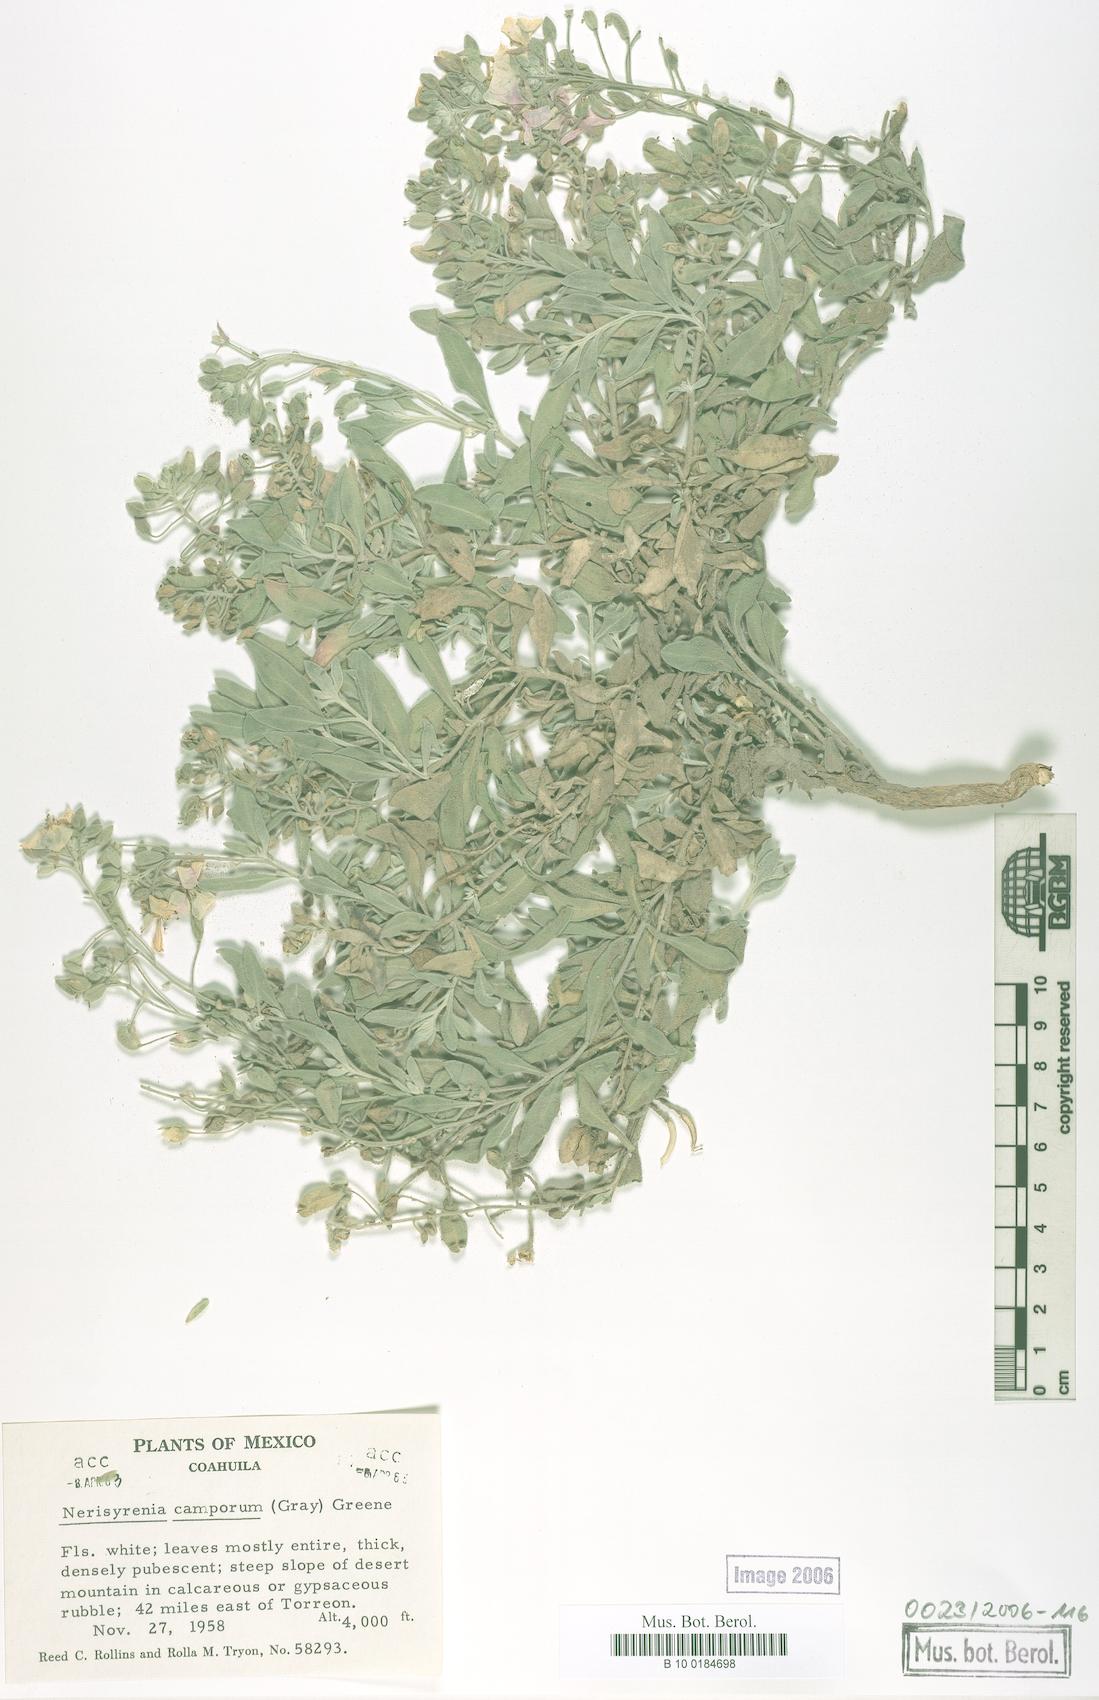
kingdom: Plantae
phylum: Tracheophyta
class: Magnoliopsida
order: Brassicales
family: Brassicaceae
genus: Nerisyrenia
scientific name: Nerisyrenia camporum
